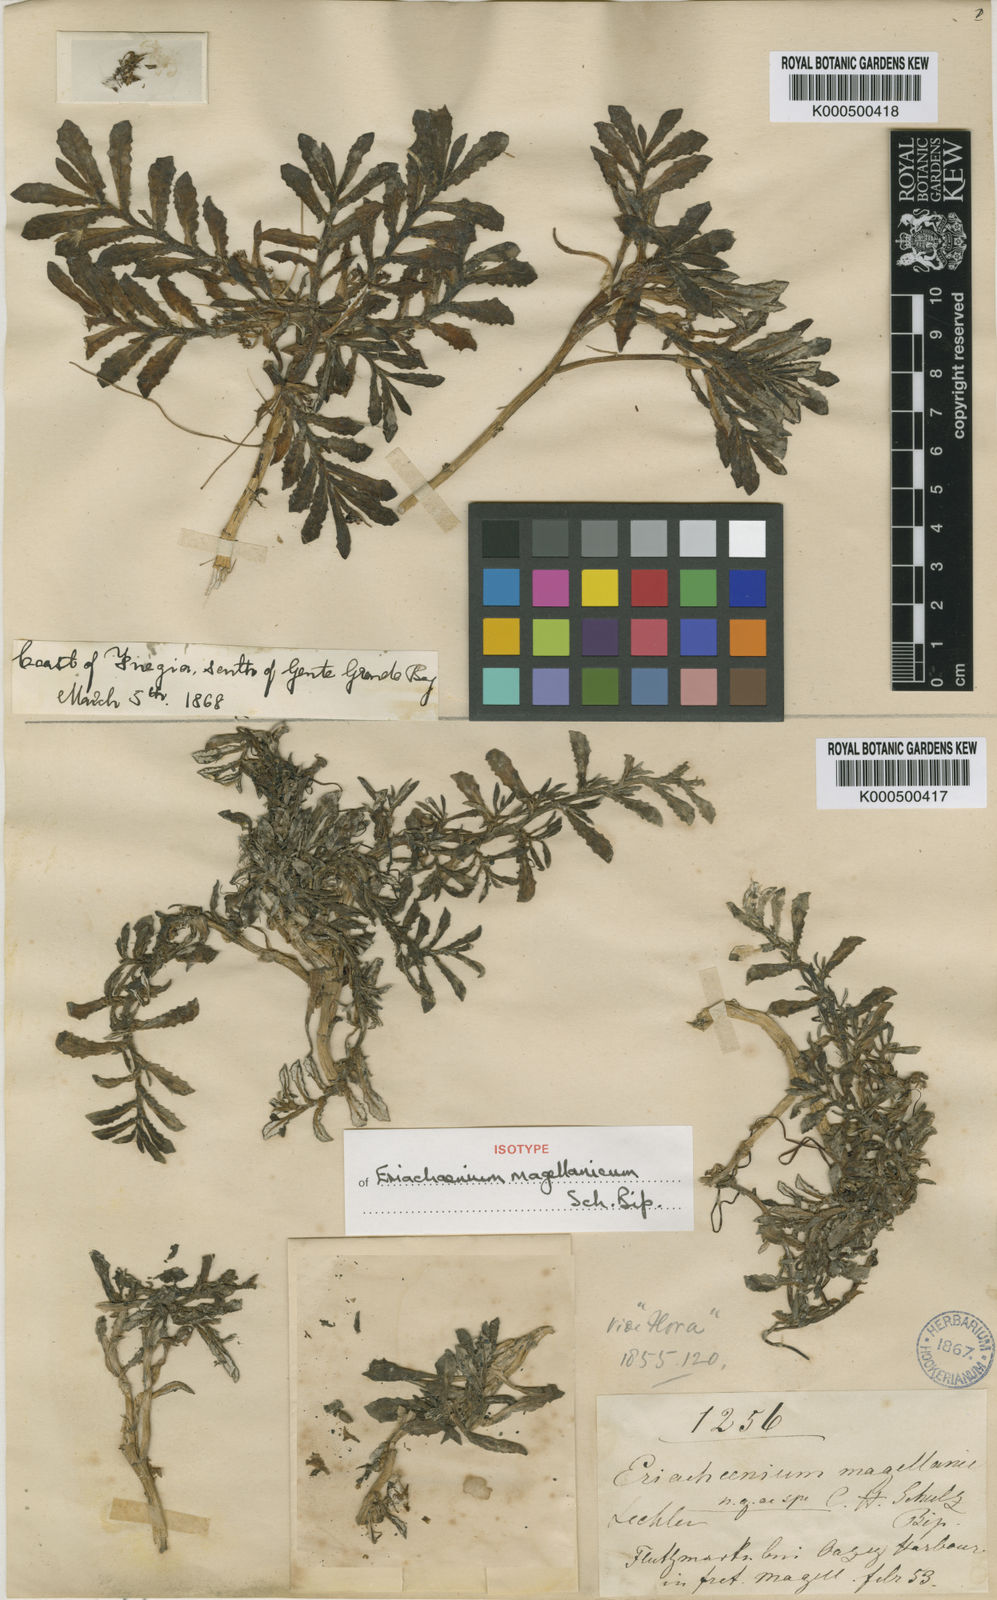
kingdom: Plantae
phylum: Tracheophyta
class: Magnoliopsida
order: Asterales
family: Asteraceae
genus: Eriachaenium
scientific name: Eriachaenium magellanicum
